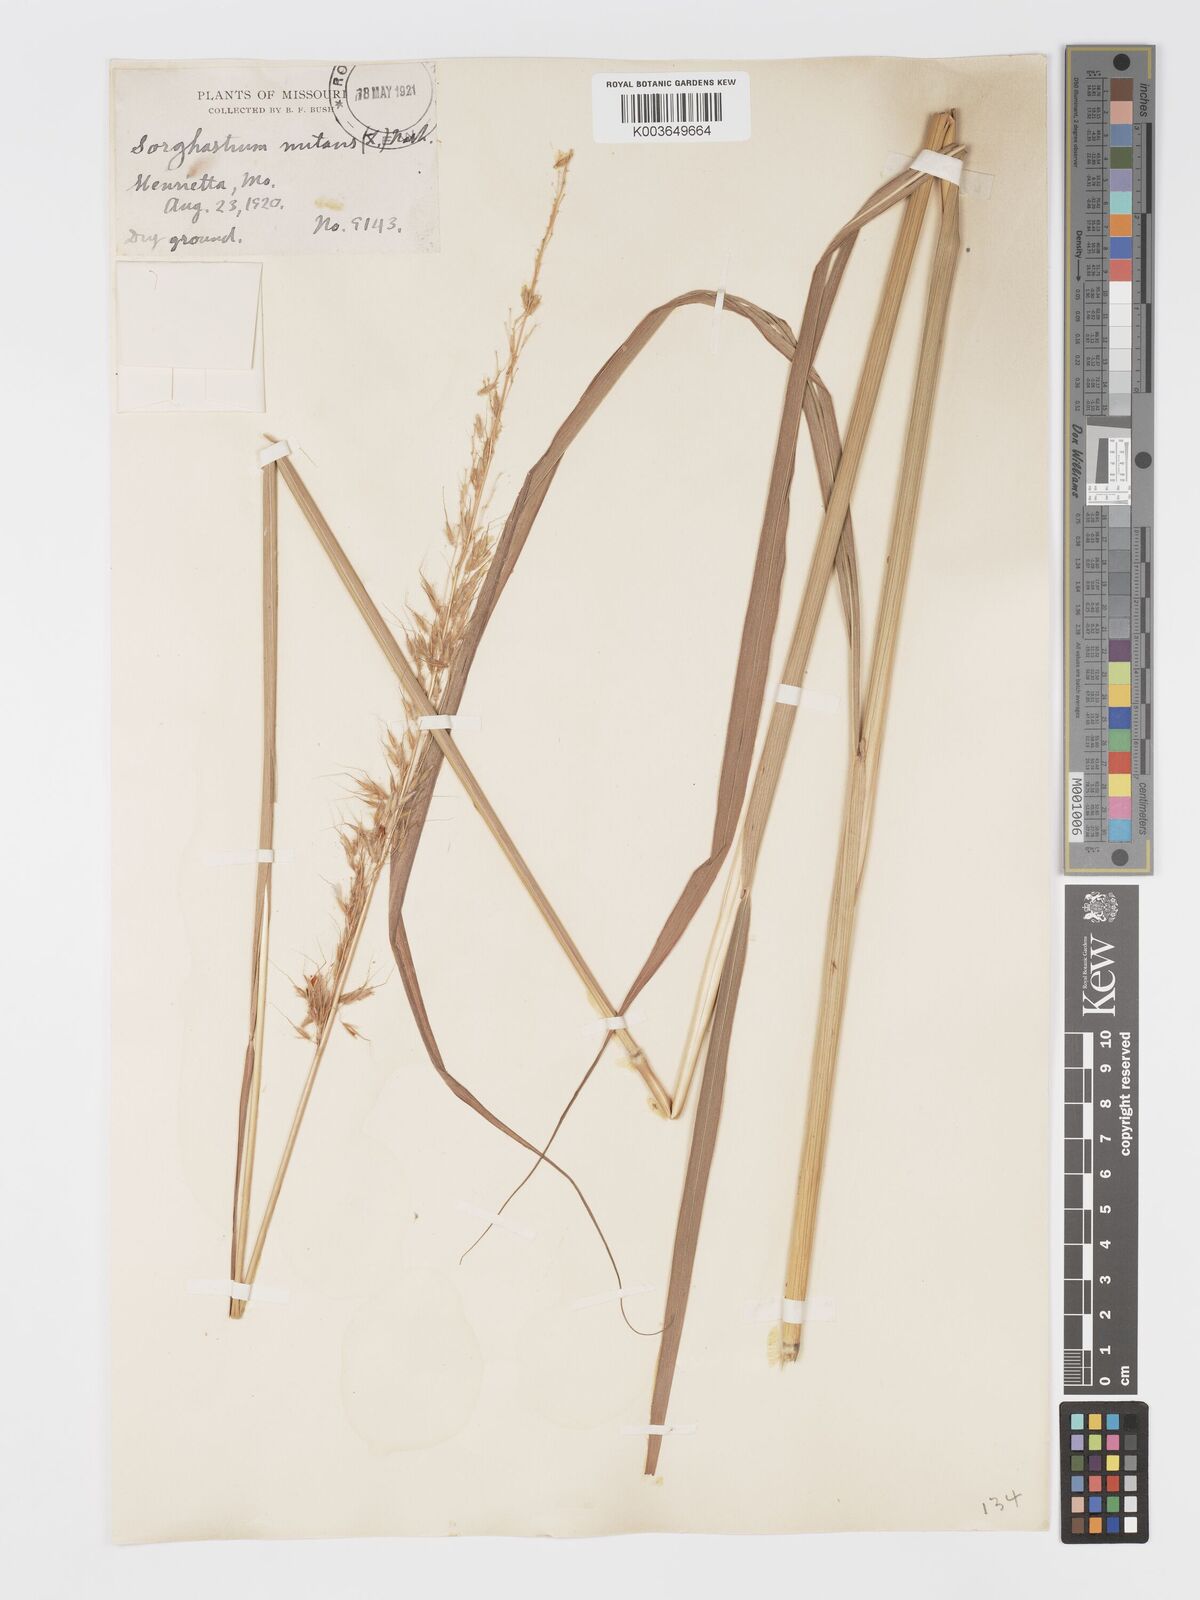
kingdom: Plantae
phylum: Tracheophyta
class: Liliopsida
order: Poales
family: Poaceae
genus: Sorghastrum
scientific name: Sorghastrum nutans
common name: Indian grass
